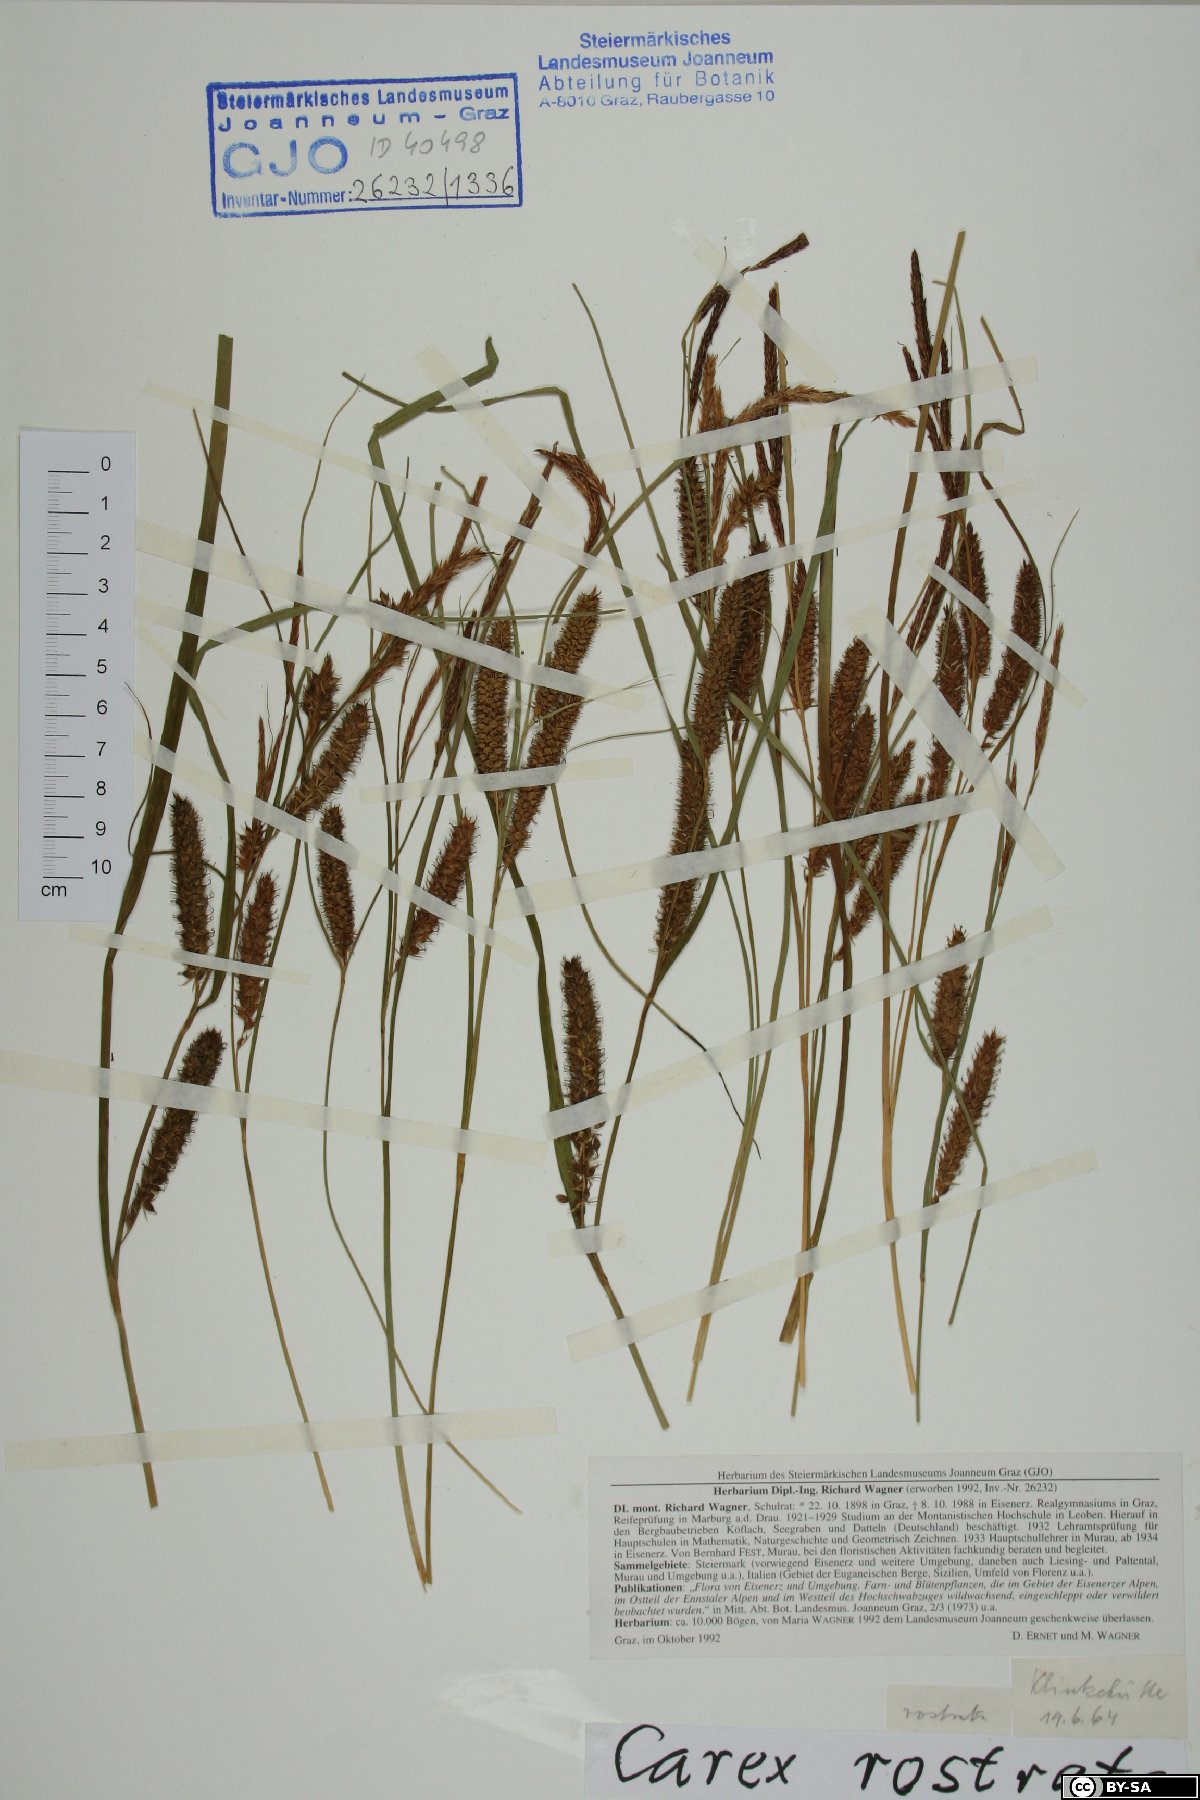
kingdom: Plantae
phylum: Tracheophyta
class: Liliopsida
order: Poales
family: Cyperaceae
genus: Carex
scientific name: Carex rostrata
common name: Bottle sedge
